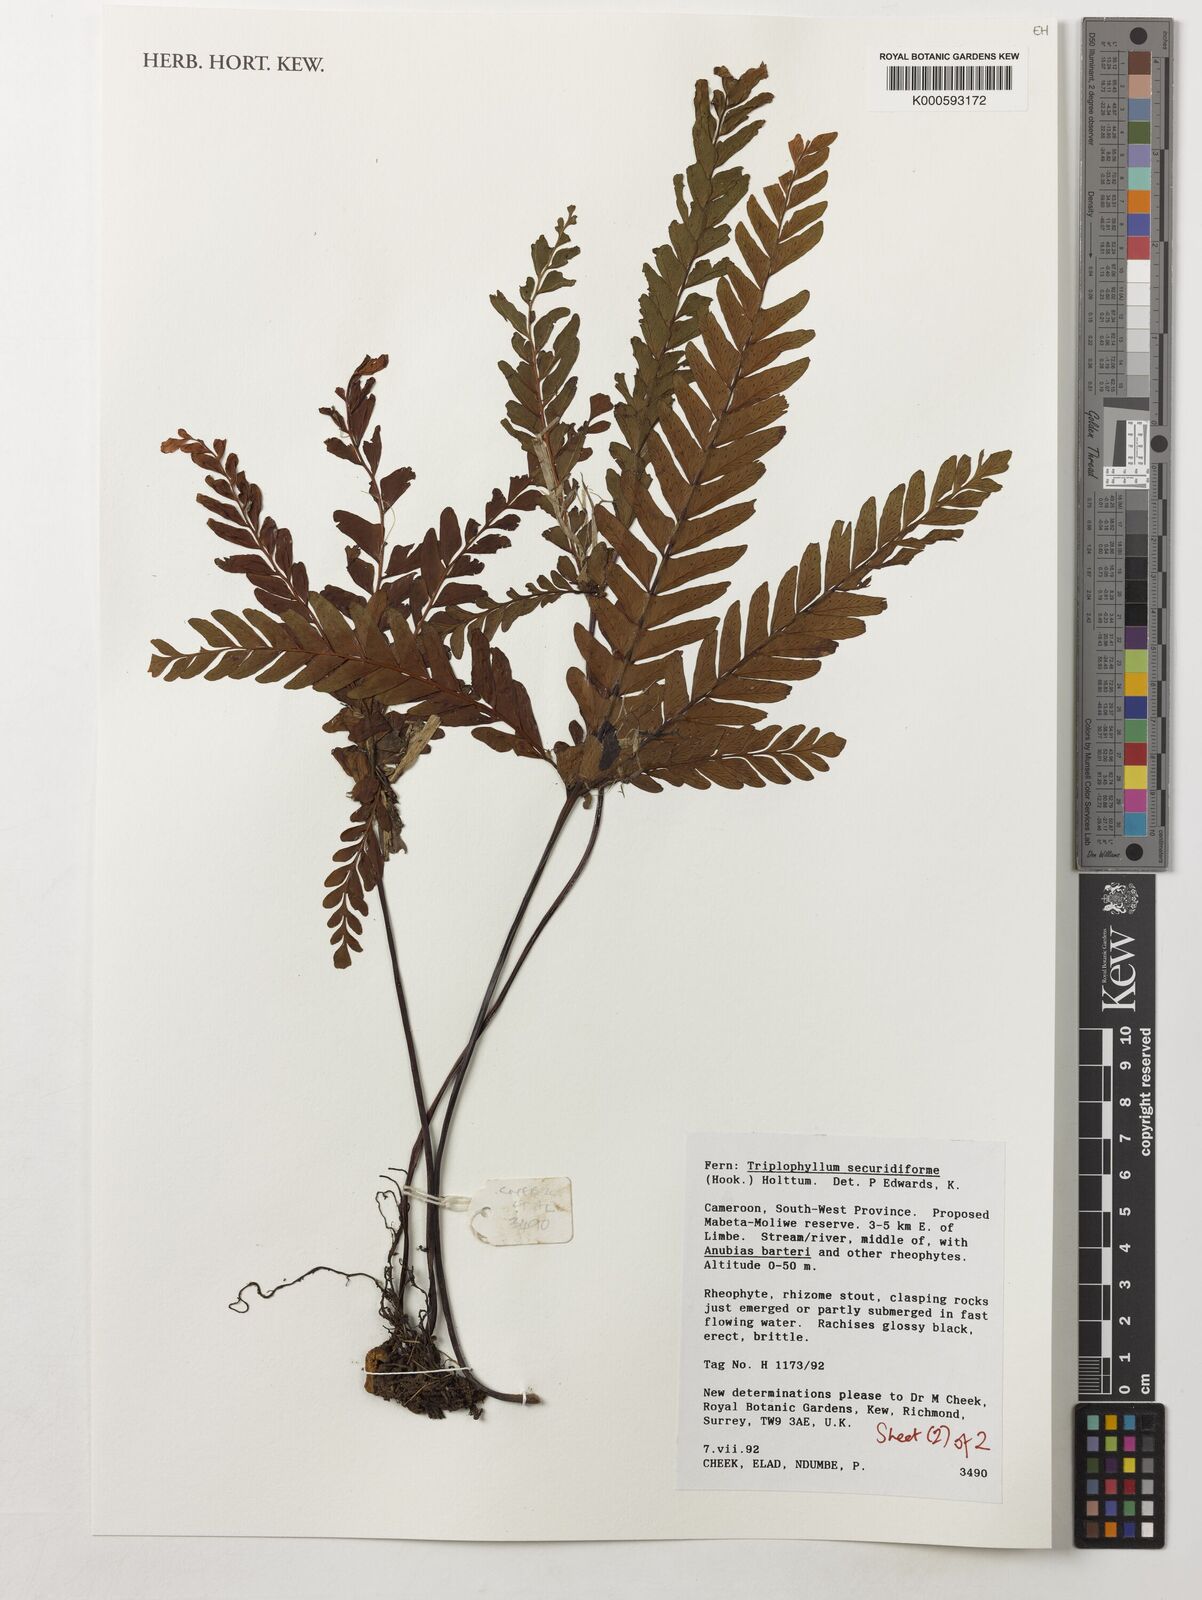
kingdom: Plantae
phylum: Tracheophyta
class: Polypodiopsida
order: Polypodiales
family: Tectariaceae
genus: Triplophyllum
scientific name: Triplophyllum securidiforme
